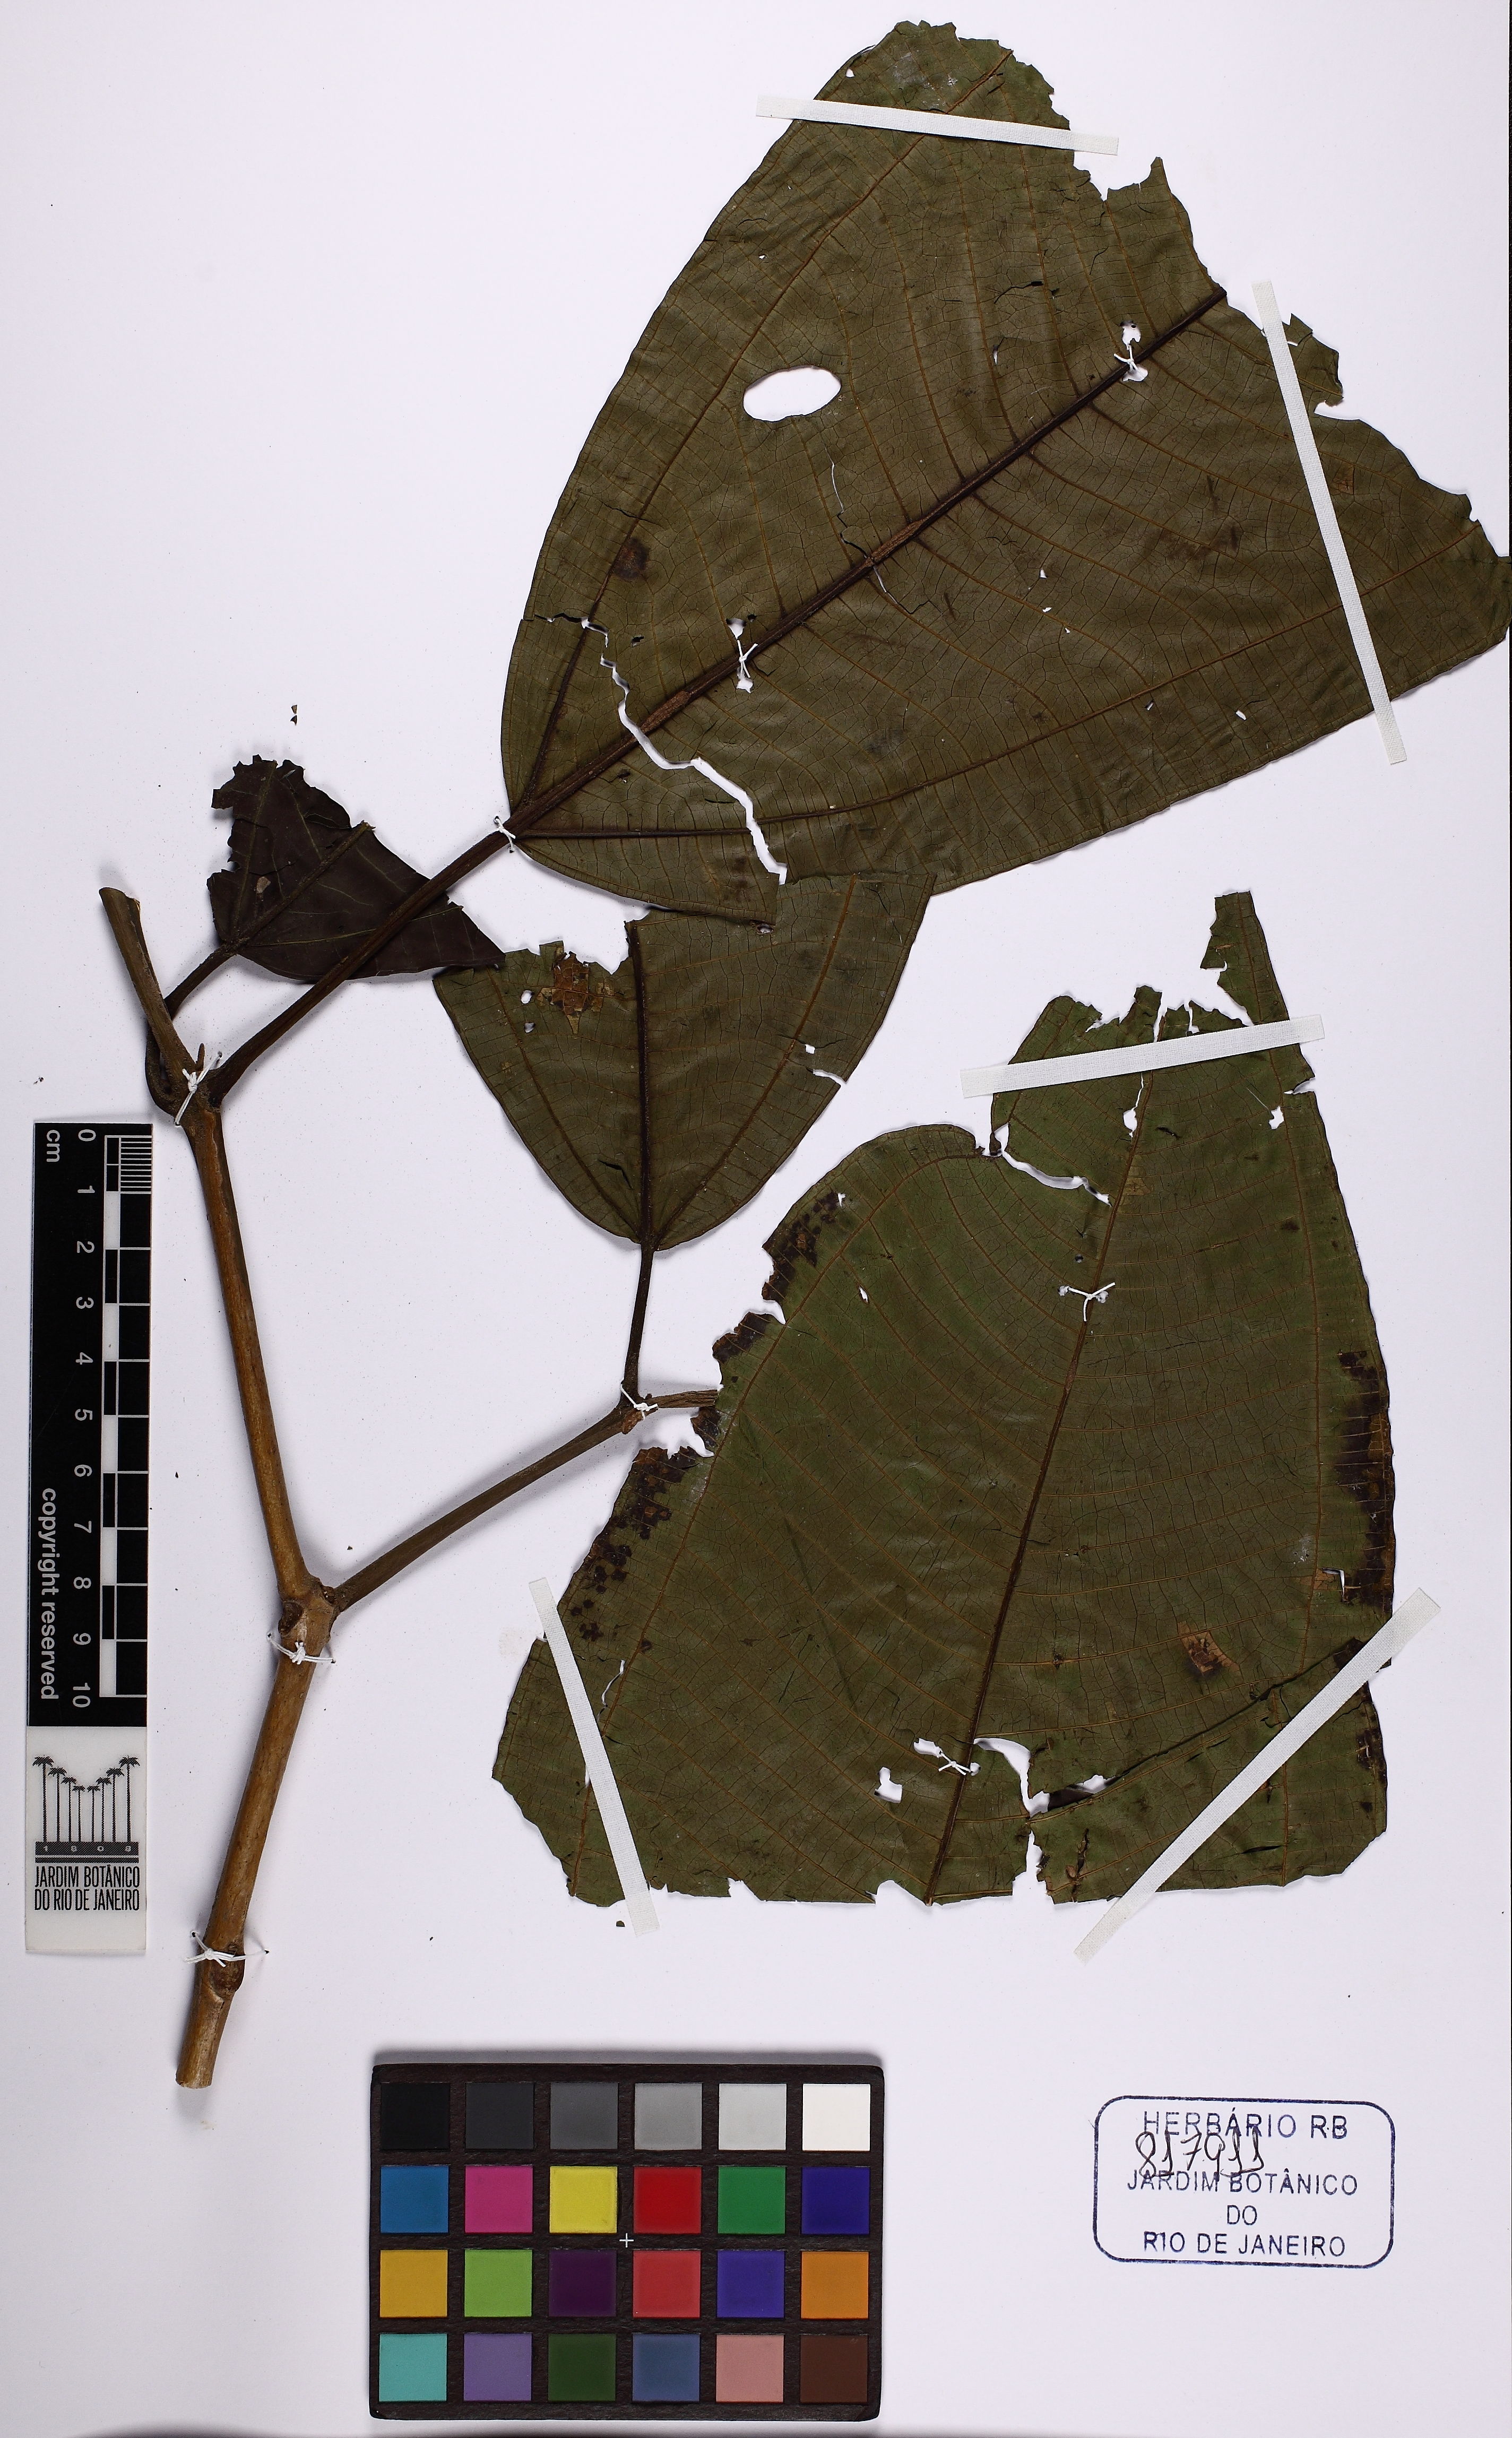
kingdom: Plantae
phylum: Tracheophyta
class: Magnoliopsida
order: Myrtales
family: Melastomataceae
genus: Miconia
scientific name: Miconia calvescens
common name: Purple plague
